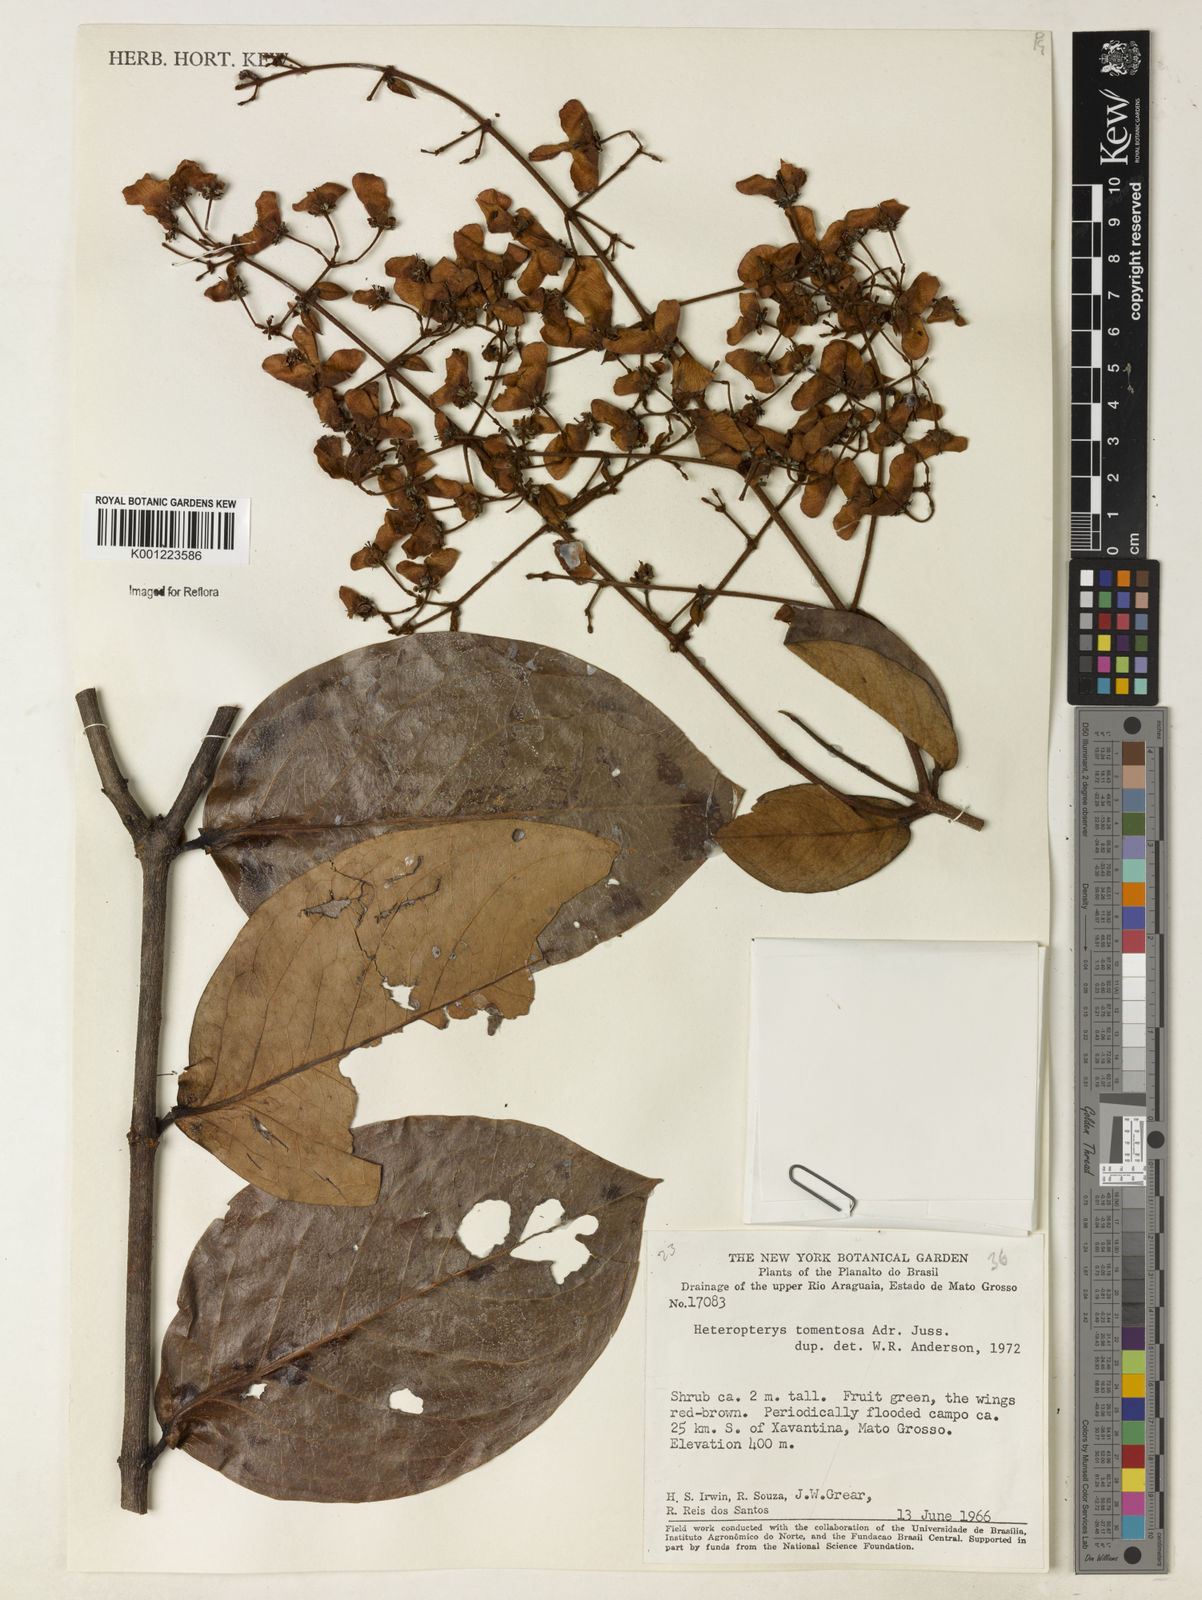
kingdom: Plantae
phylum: Tracheophyta
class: Magnoliopsida
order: Malpighiales
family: Malpighiaceae
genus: Heteropterys
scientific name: Heteropterys tomentosa
